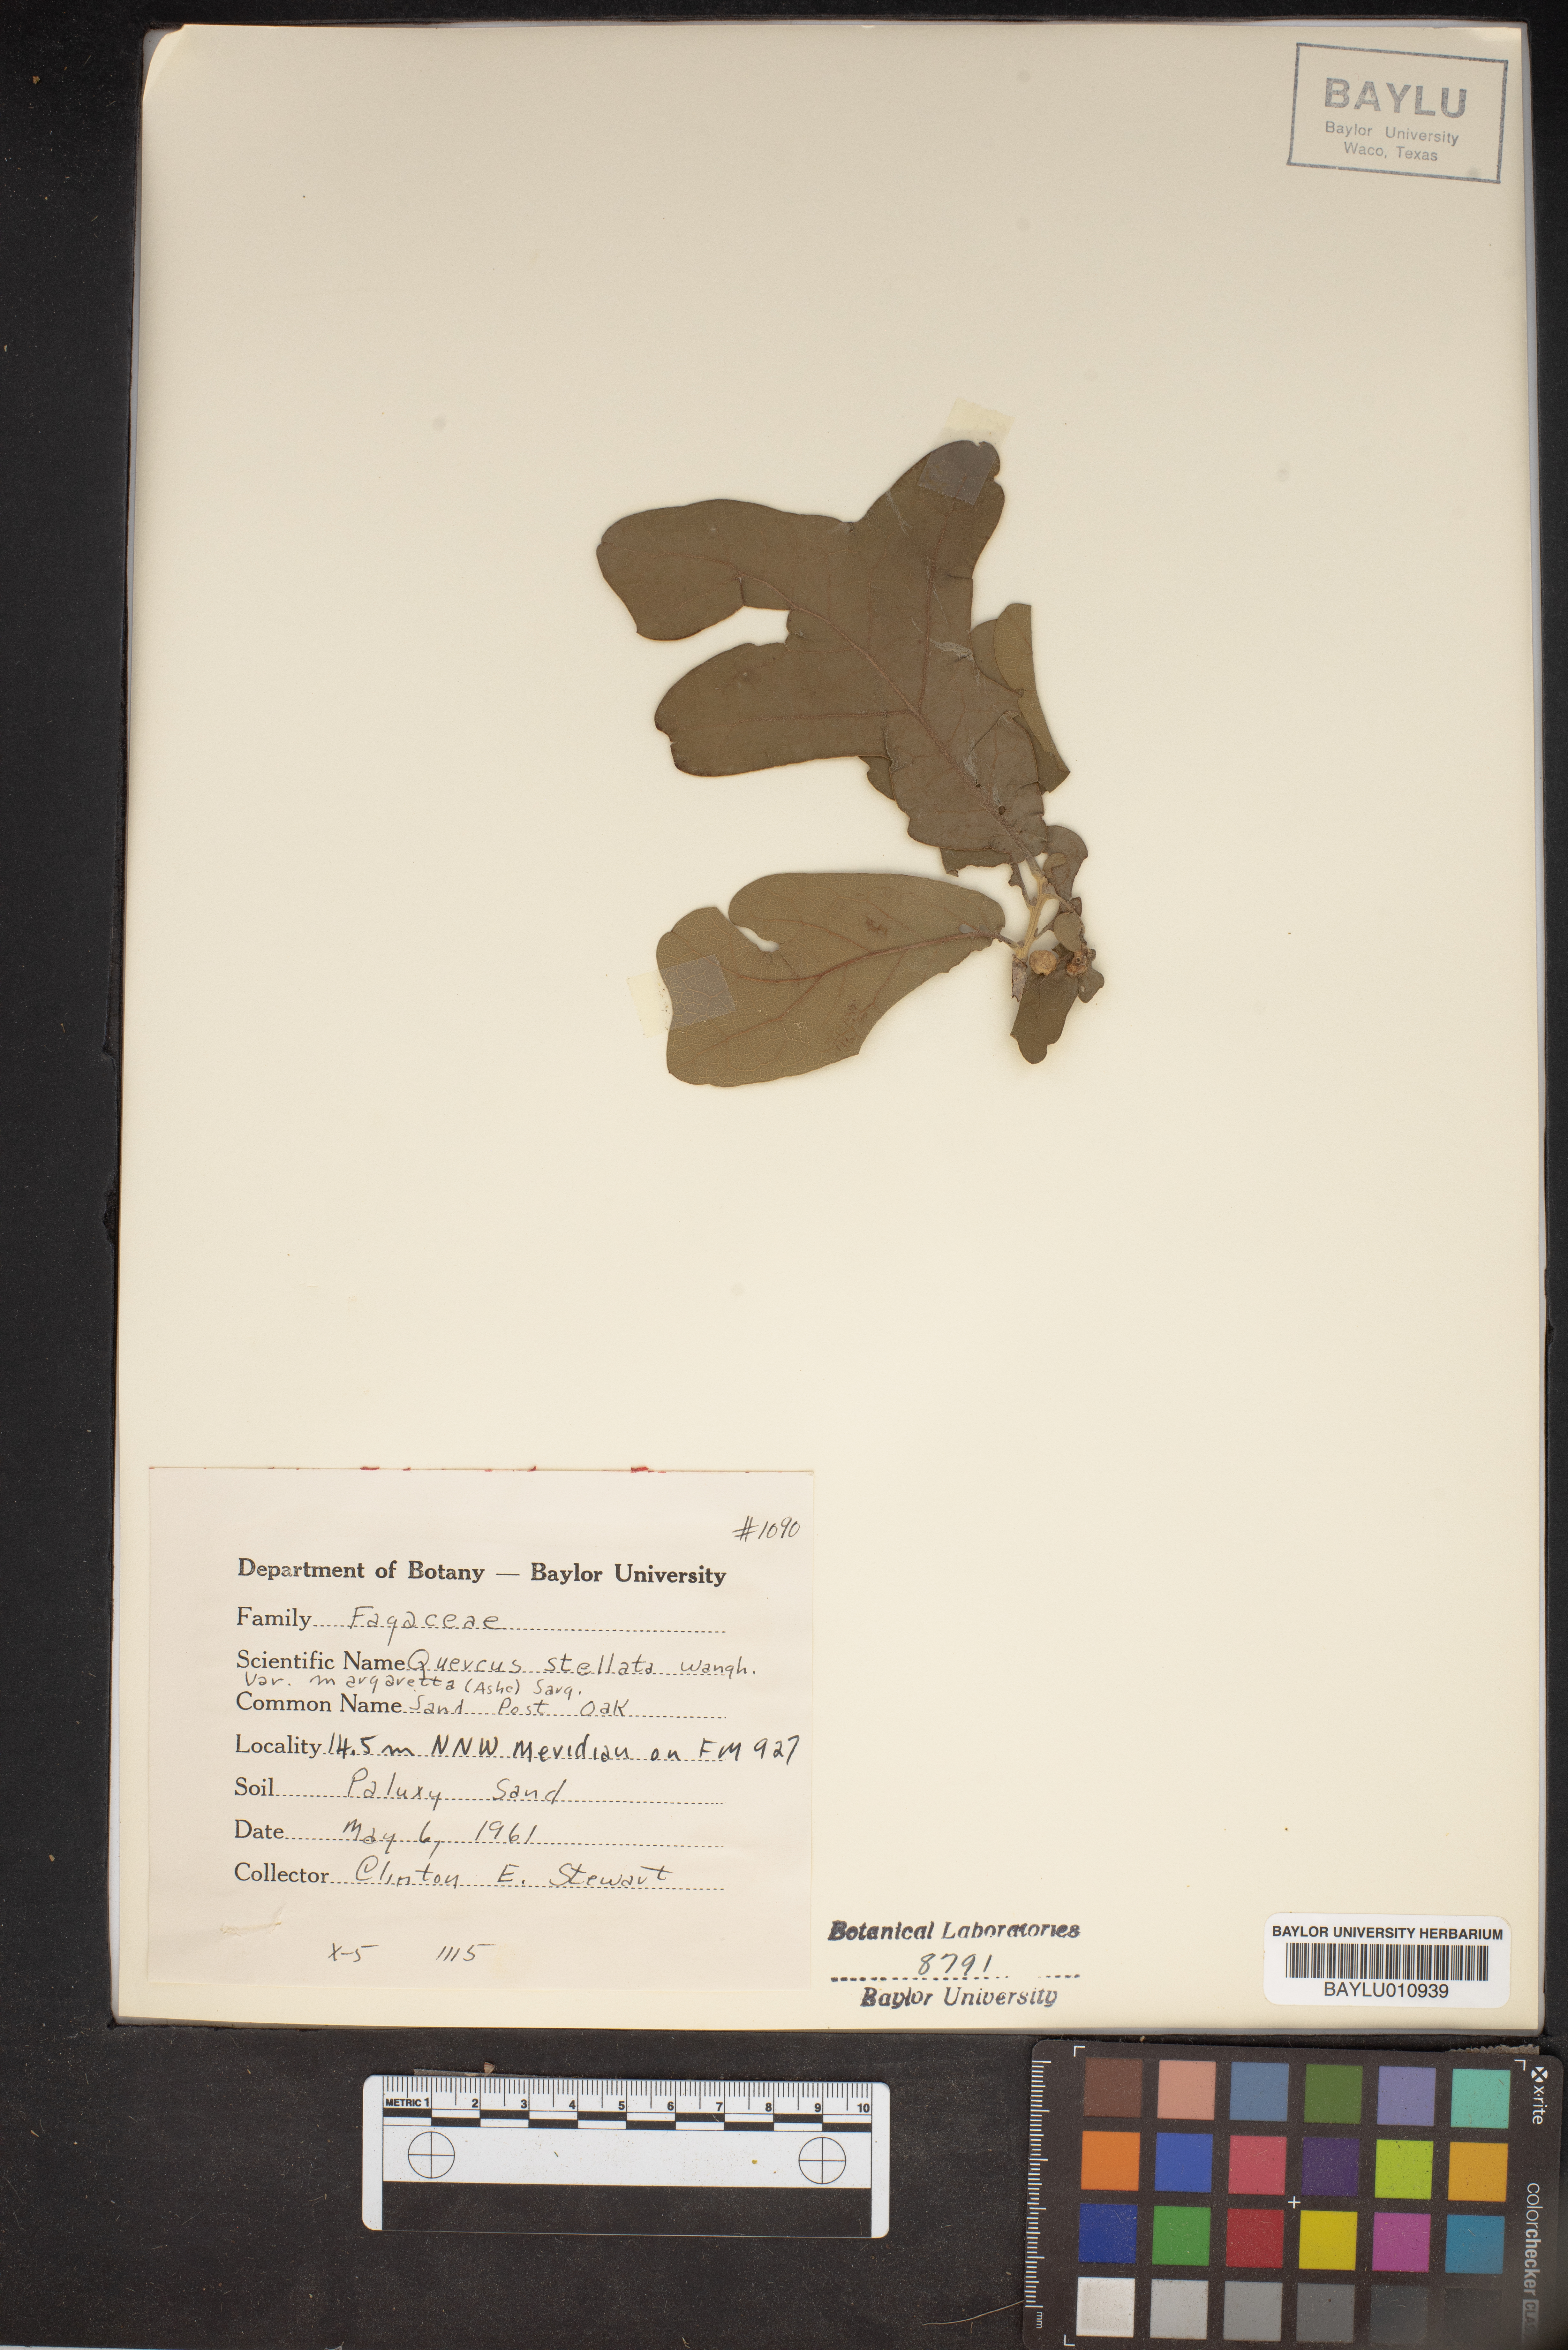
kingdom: Plantae
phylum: Tracheophyta
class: Magnoliopsida
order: Fagales
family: Fagaceae
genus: Quercus
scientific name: Quercus margaretta
